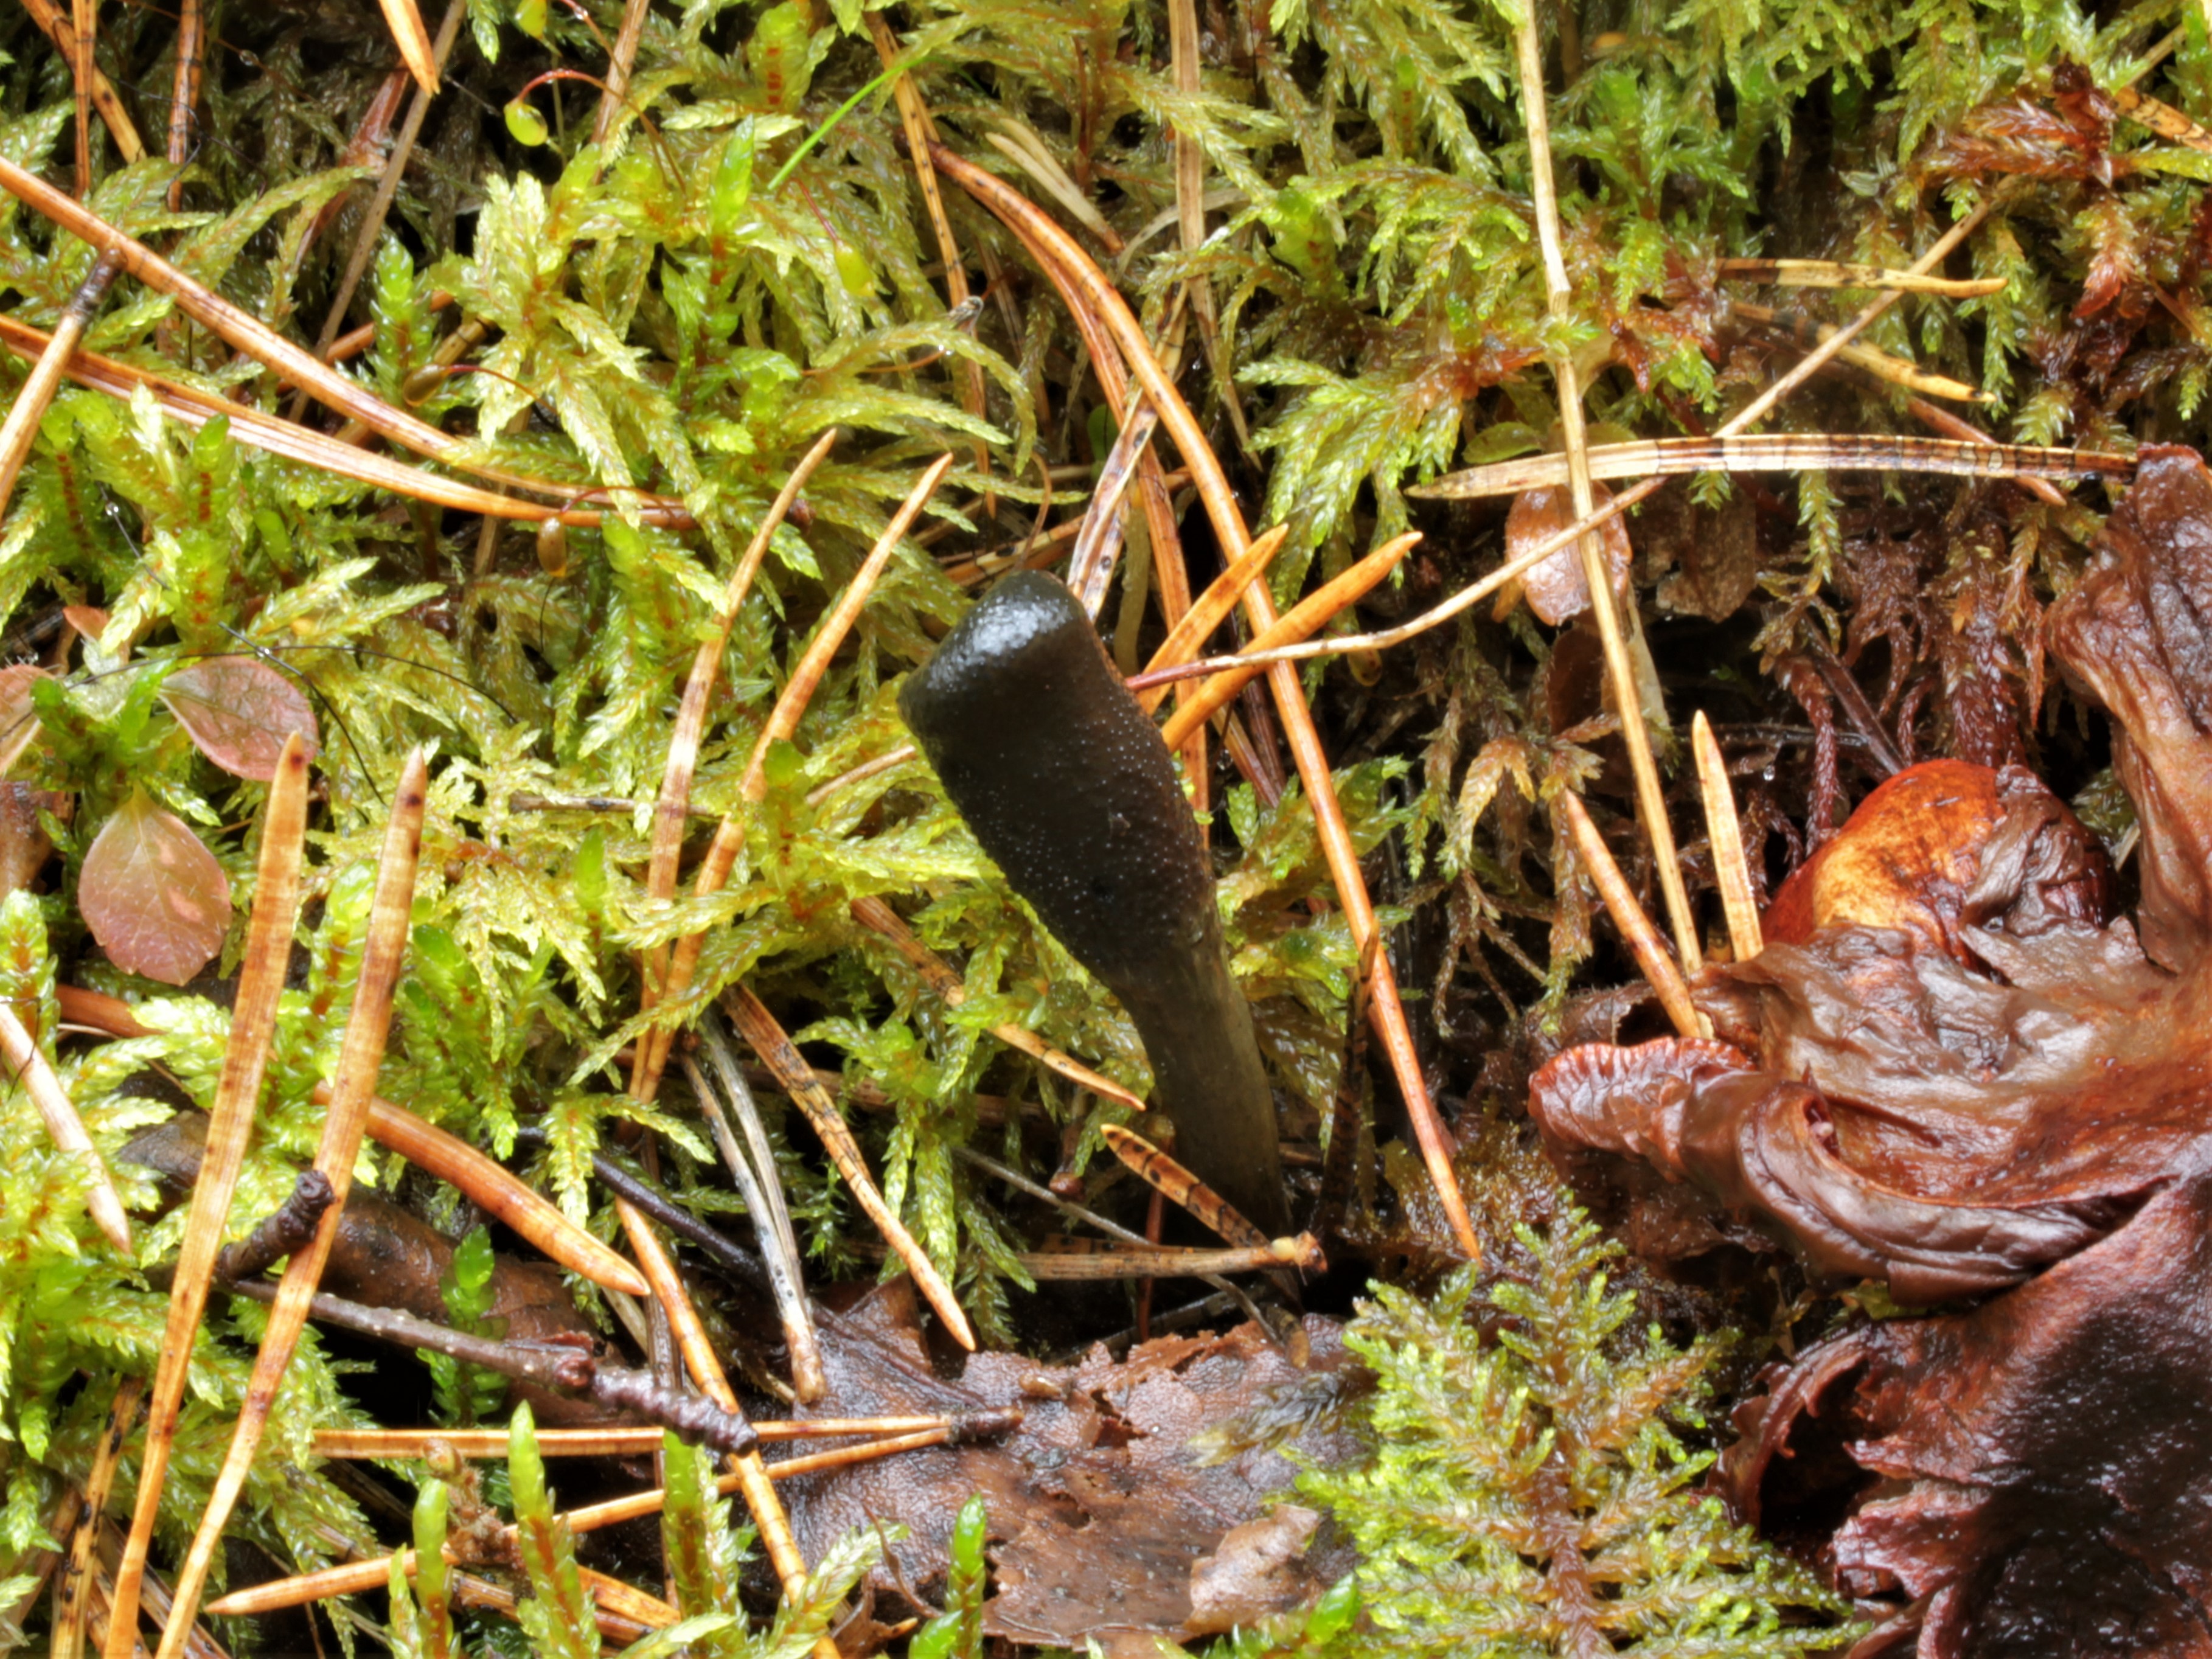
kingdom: Fungi
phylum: Ascomycota
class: Sordariomycetes
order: Hypocreales
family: Ophiocordycipitaceae
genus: Tolypocladium
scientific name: Tolypocladium ophioglossoides
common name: Snaketongue truffleclub
